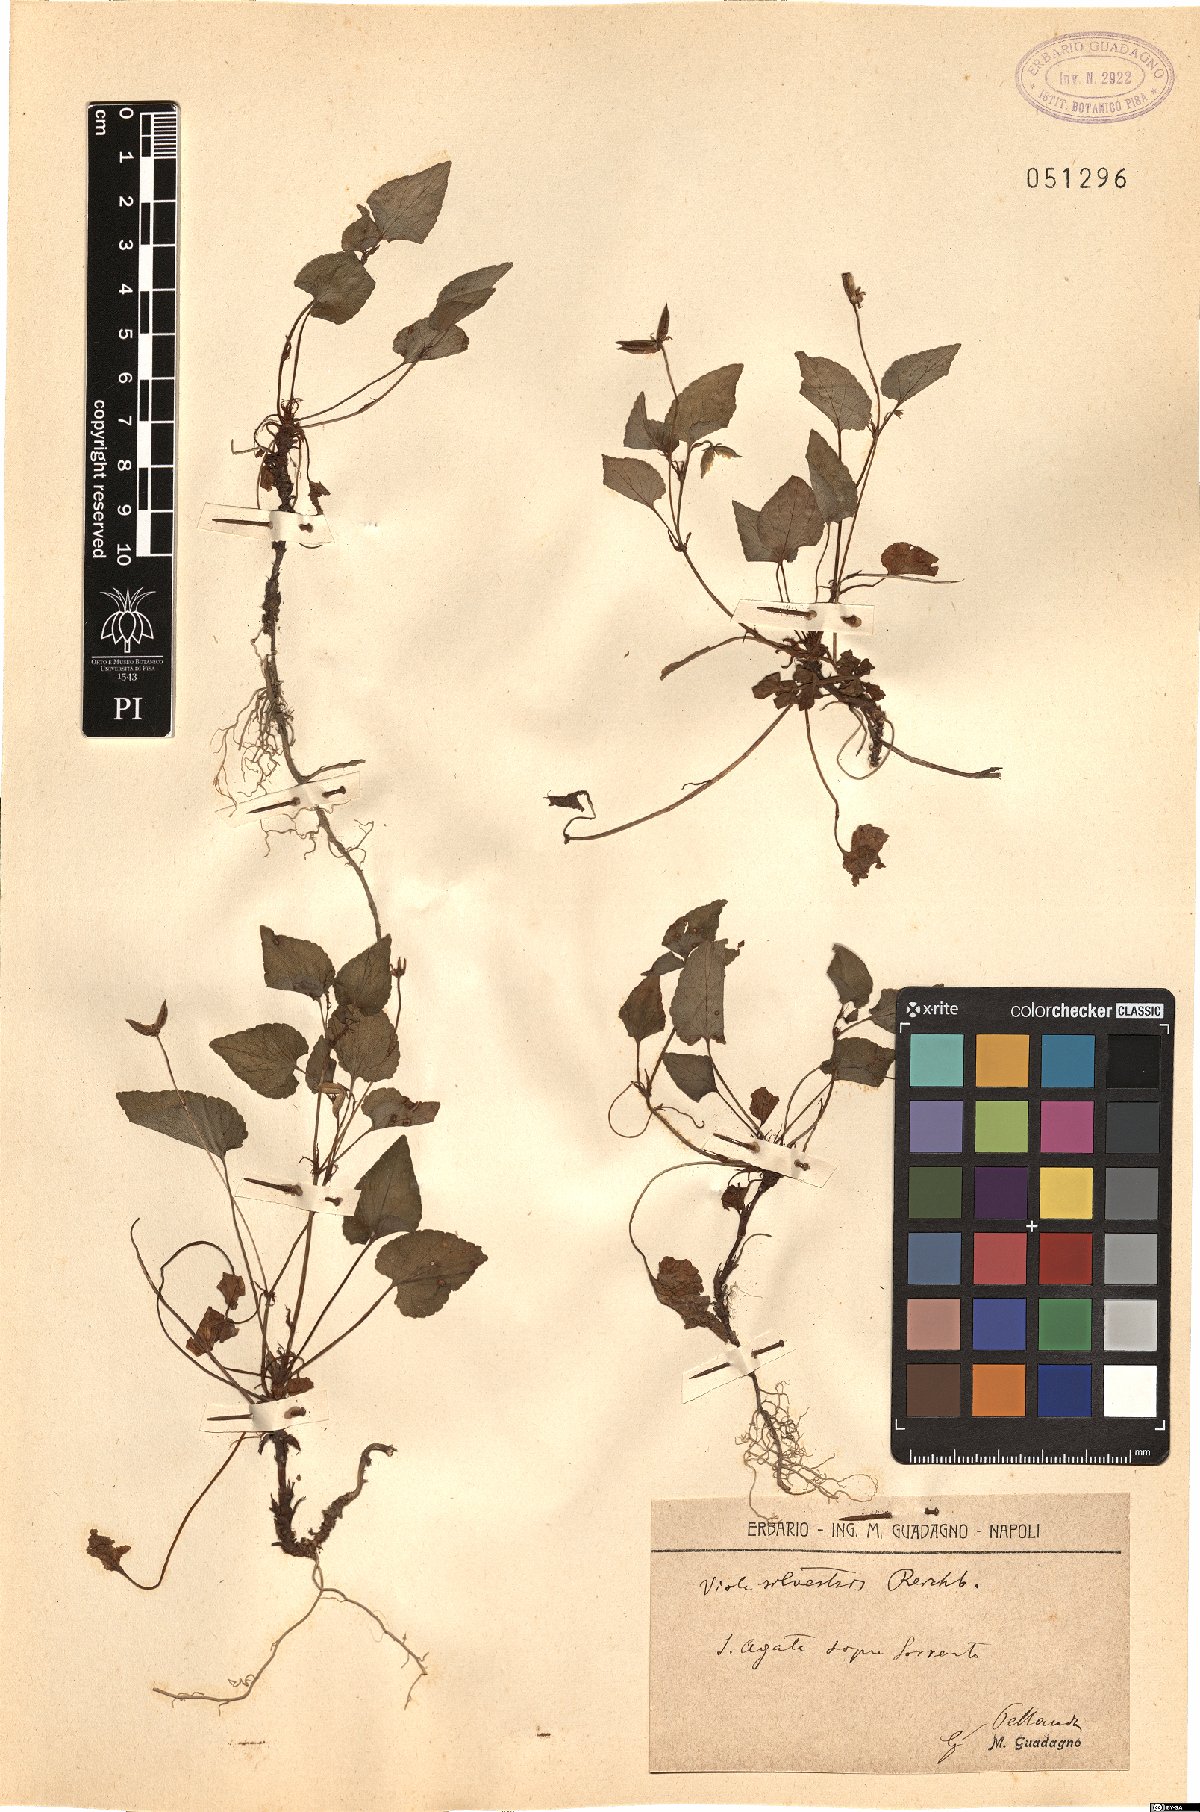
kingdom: Plantae
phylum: Tracheophyta
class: Magnoliopsida
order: Malpighiales
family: Violaceae
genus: Viola
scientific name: Viola canina
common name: Heath dog-violet
